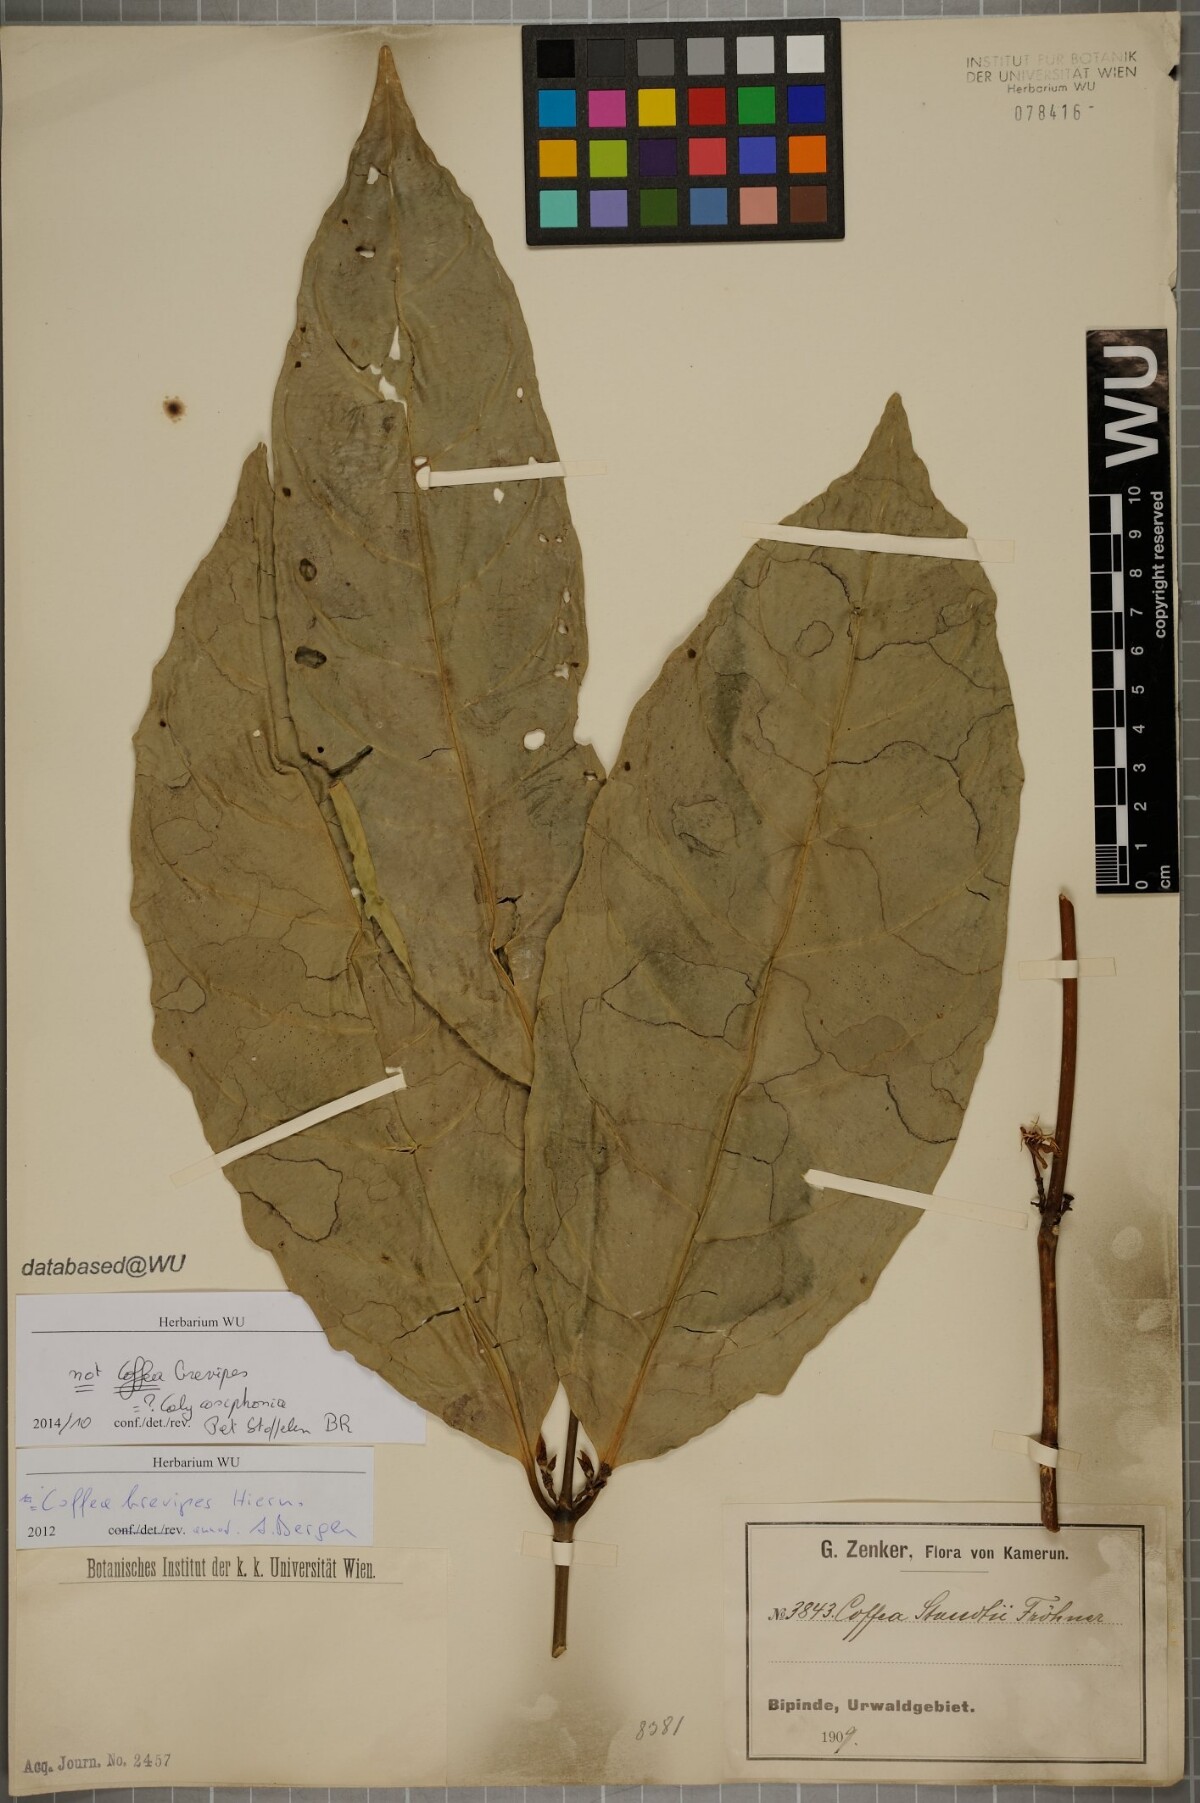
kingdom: Plantae
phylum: Tracheophyta
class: Magnoliopsida
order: Gentianales
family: Rubiaceae
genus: Calycosiphonia
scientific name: Calycosiphonia
